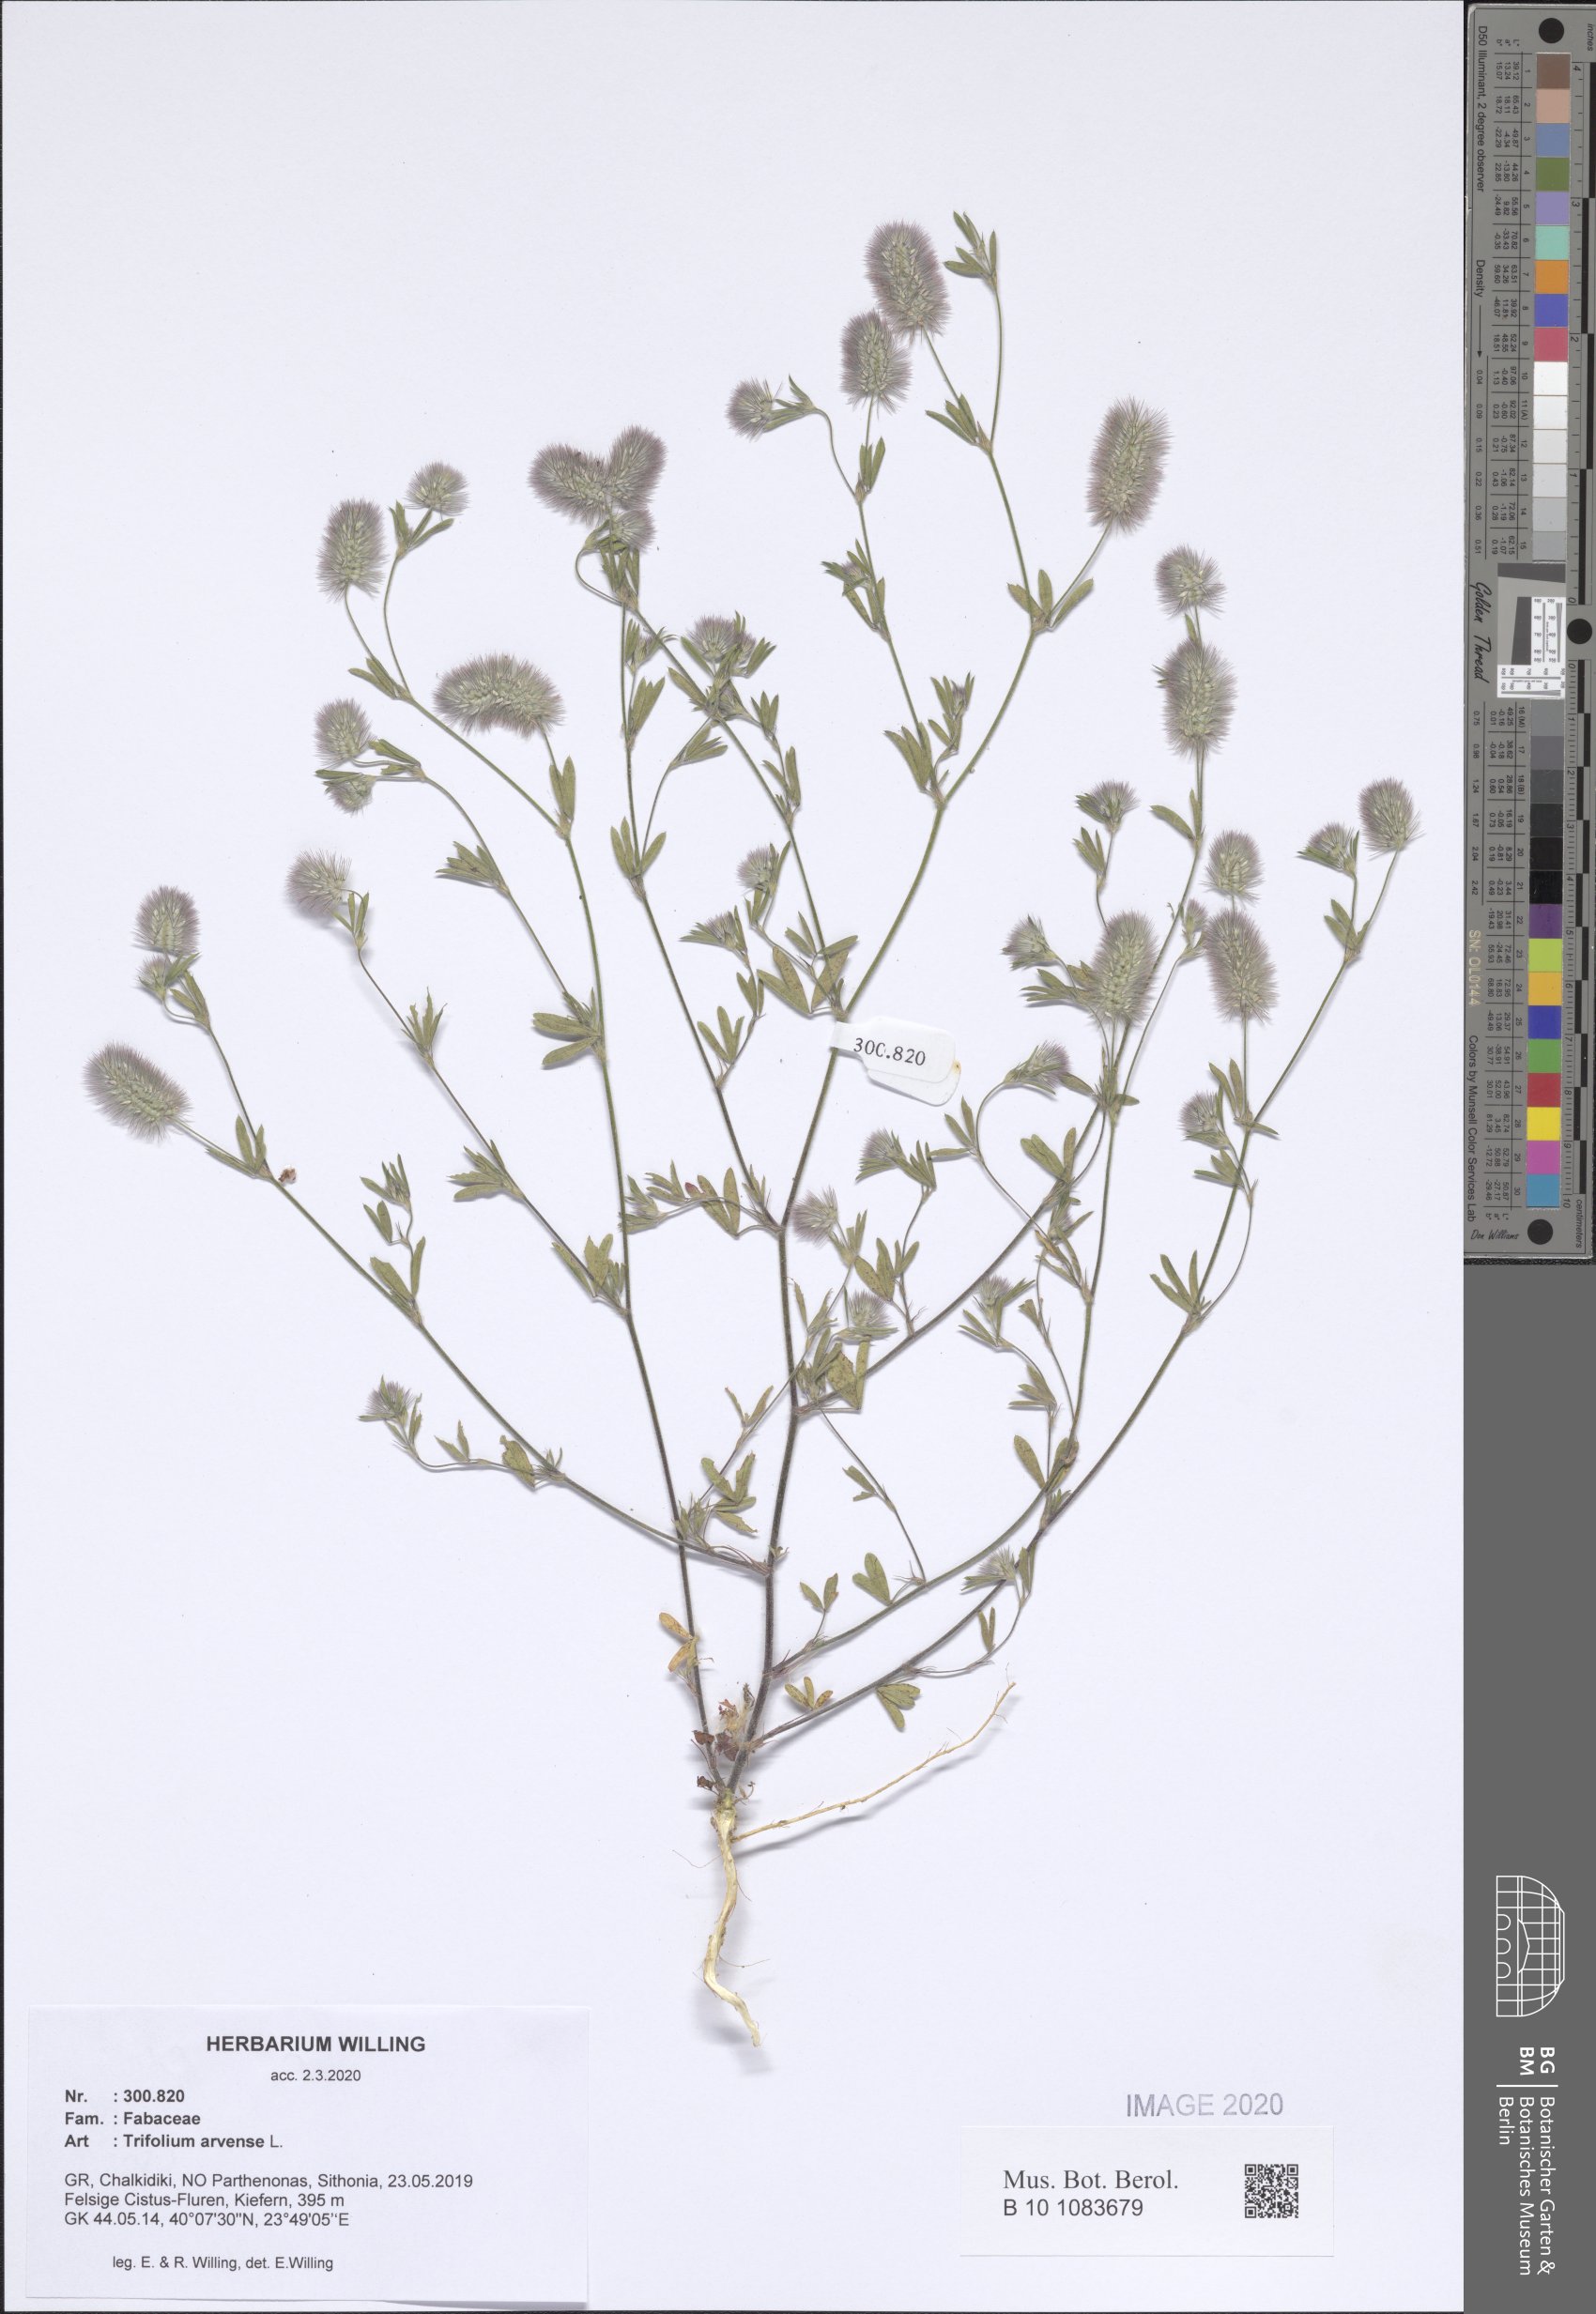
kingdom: Plantae
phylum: Tracheophyta
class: Magnoliopsida
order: Fabales
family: Fabaceae
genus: Trifolium
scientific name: Trifolium arvense
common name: Hare's-foot clover
